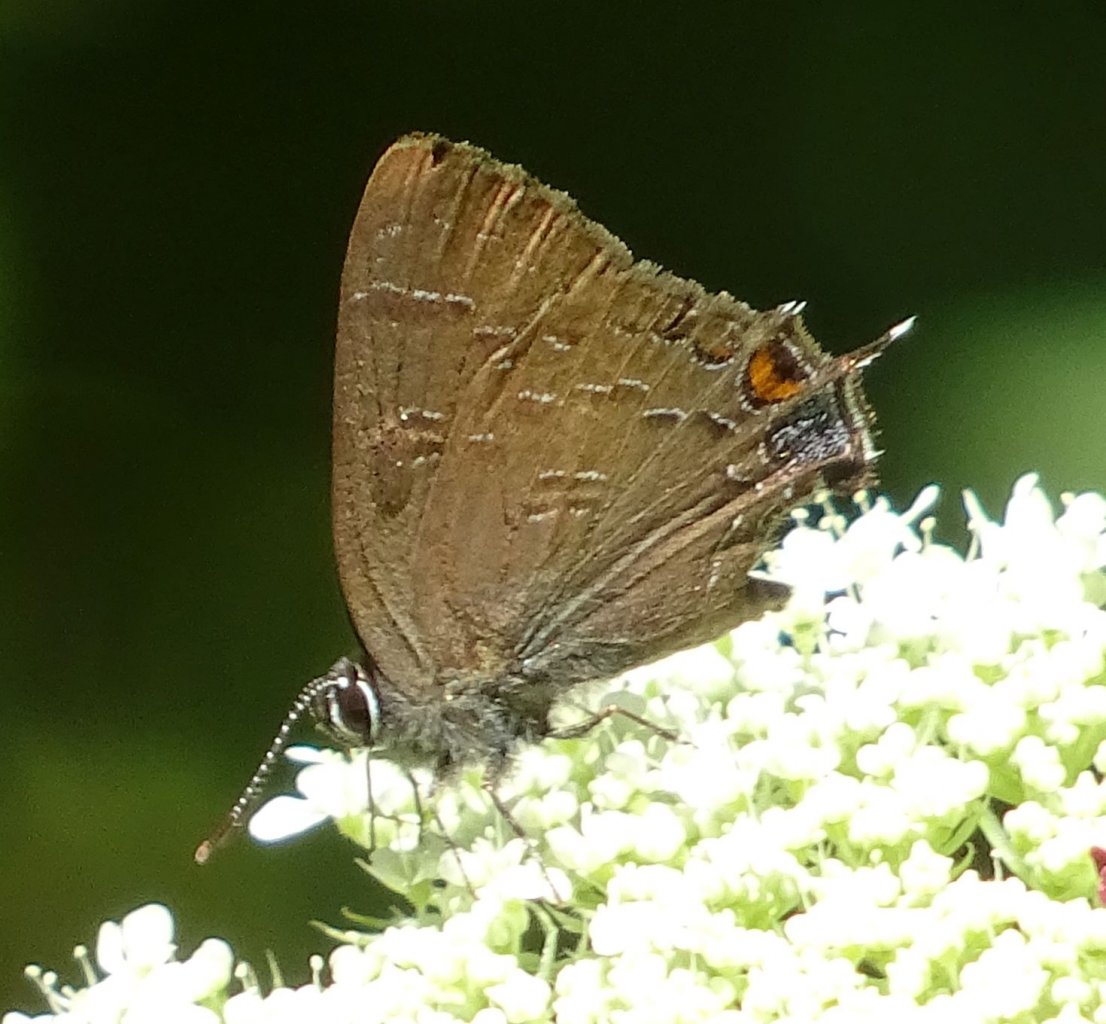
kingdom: Animalia
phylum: Arthropoda
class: Insecta
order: Lepidoptera
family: Lycaenidae
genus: Satyrium
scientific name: Satyrium calanus
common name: Banded Hairstreak
